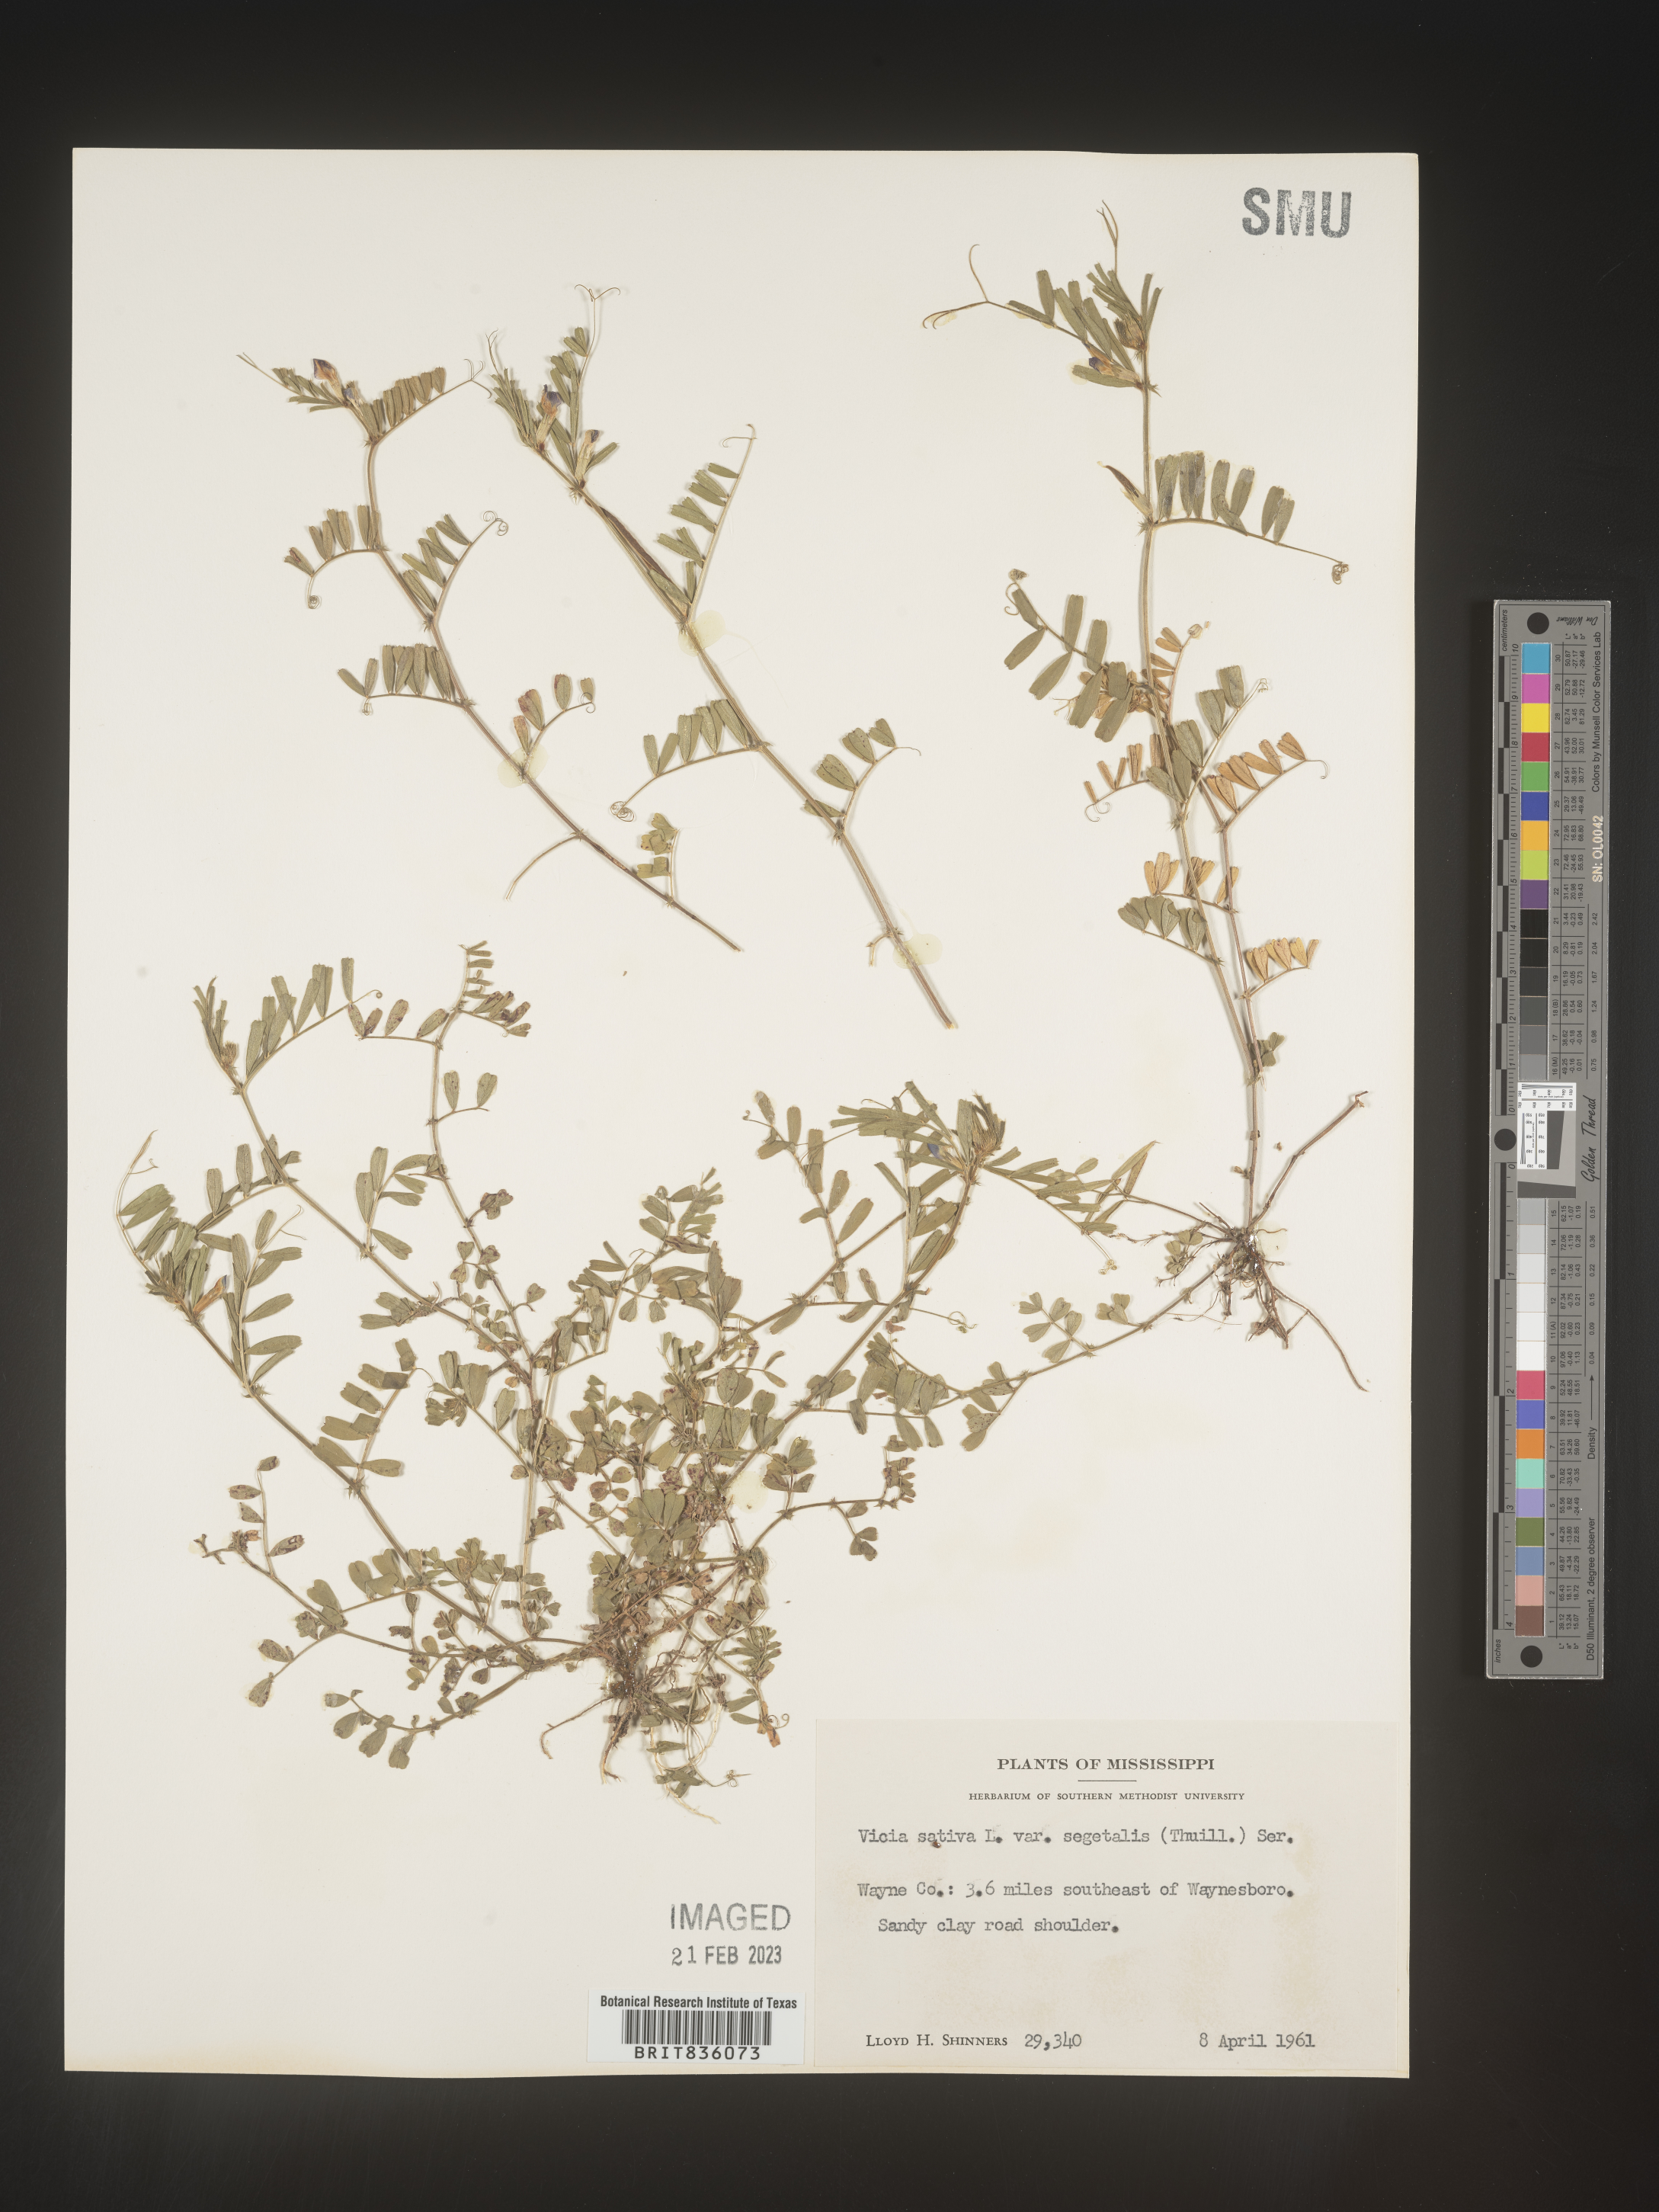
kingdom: Plantae
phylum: Tracheophyta
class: Magnoliopsida
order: Fabales
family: Fabaceae
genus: Vicia
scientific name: Vicia sativa
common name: Garden vetch
